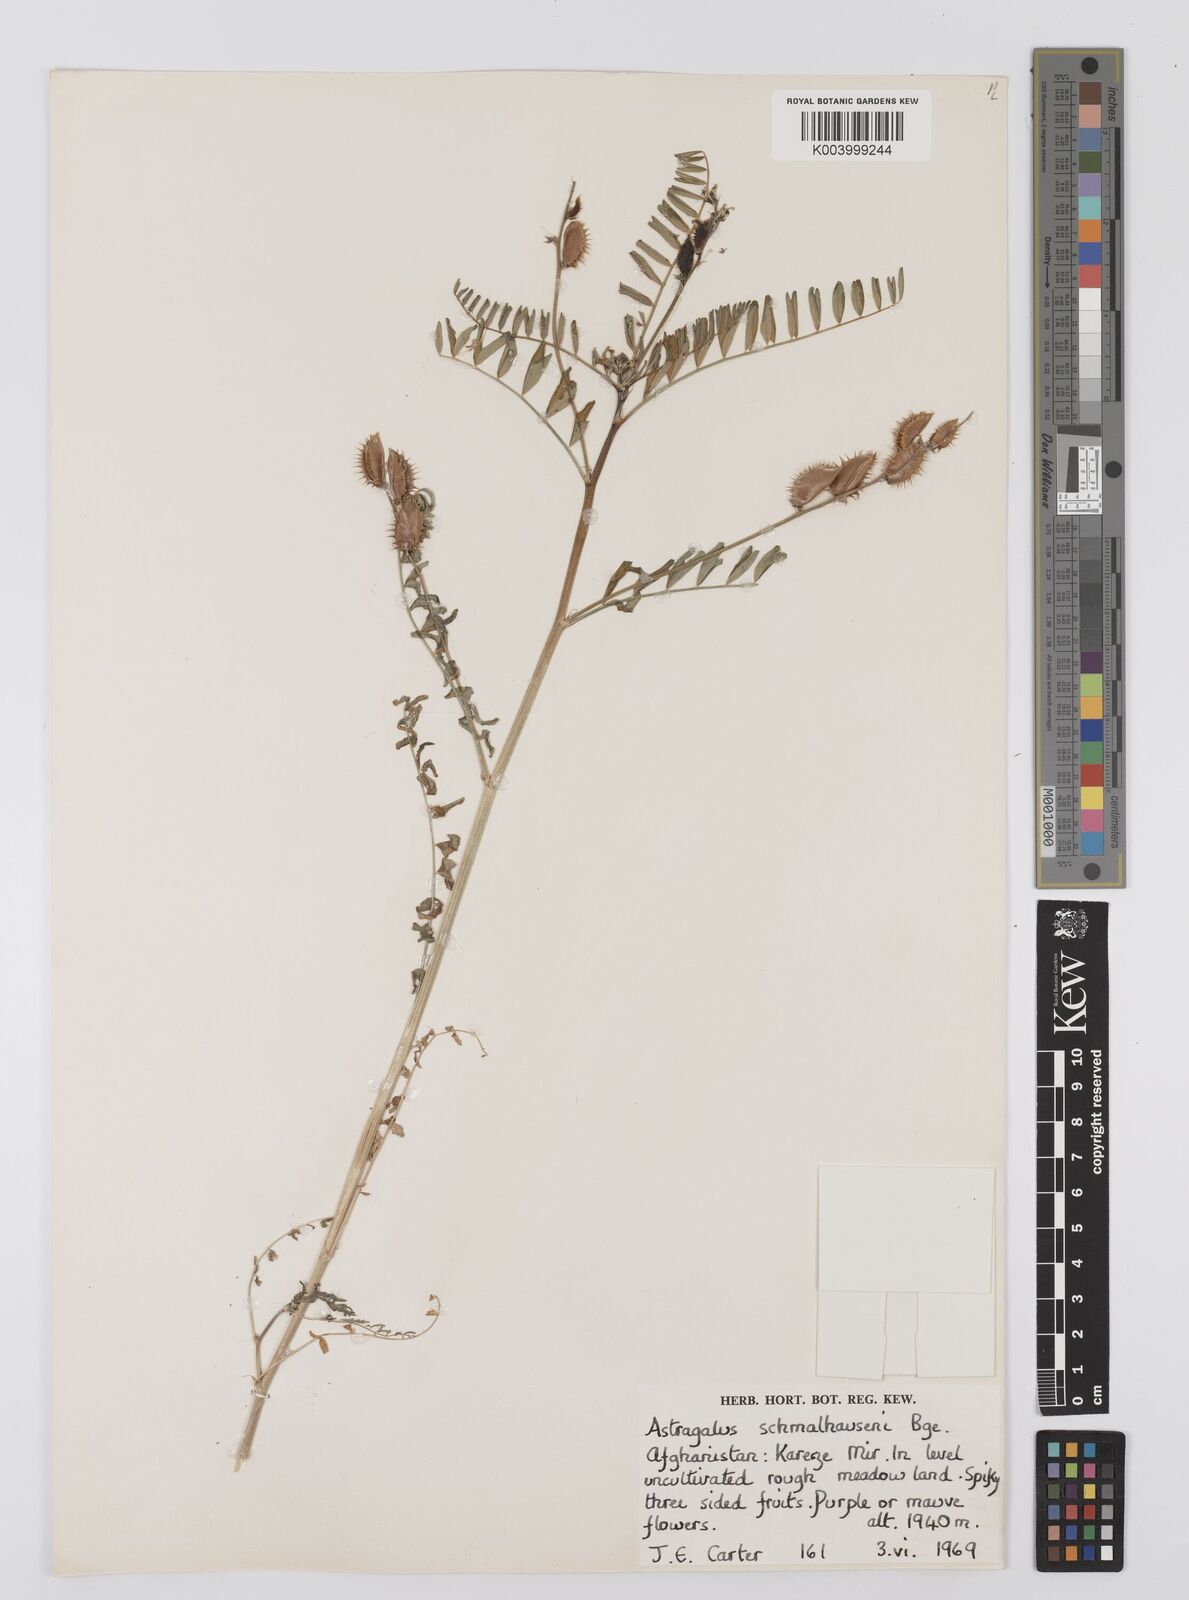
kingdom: Plantae
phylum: Tracheophyta
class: Magnoliopsida
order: Fabales
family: Fabaceae
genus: Astragalus
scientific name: Astragalus schmalhausenii
